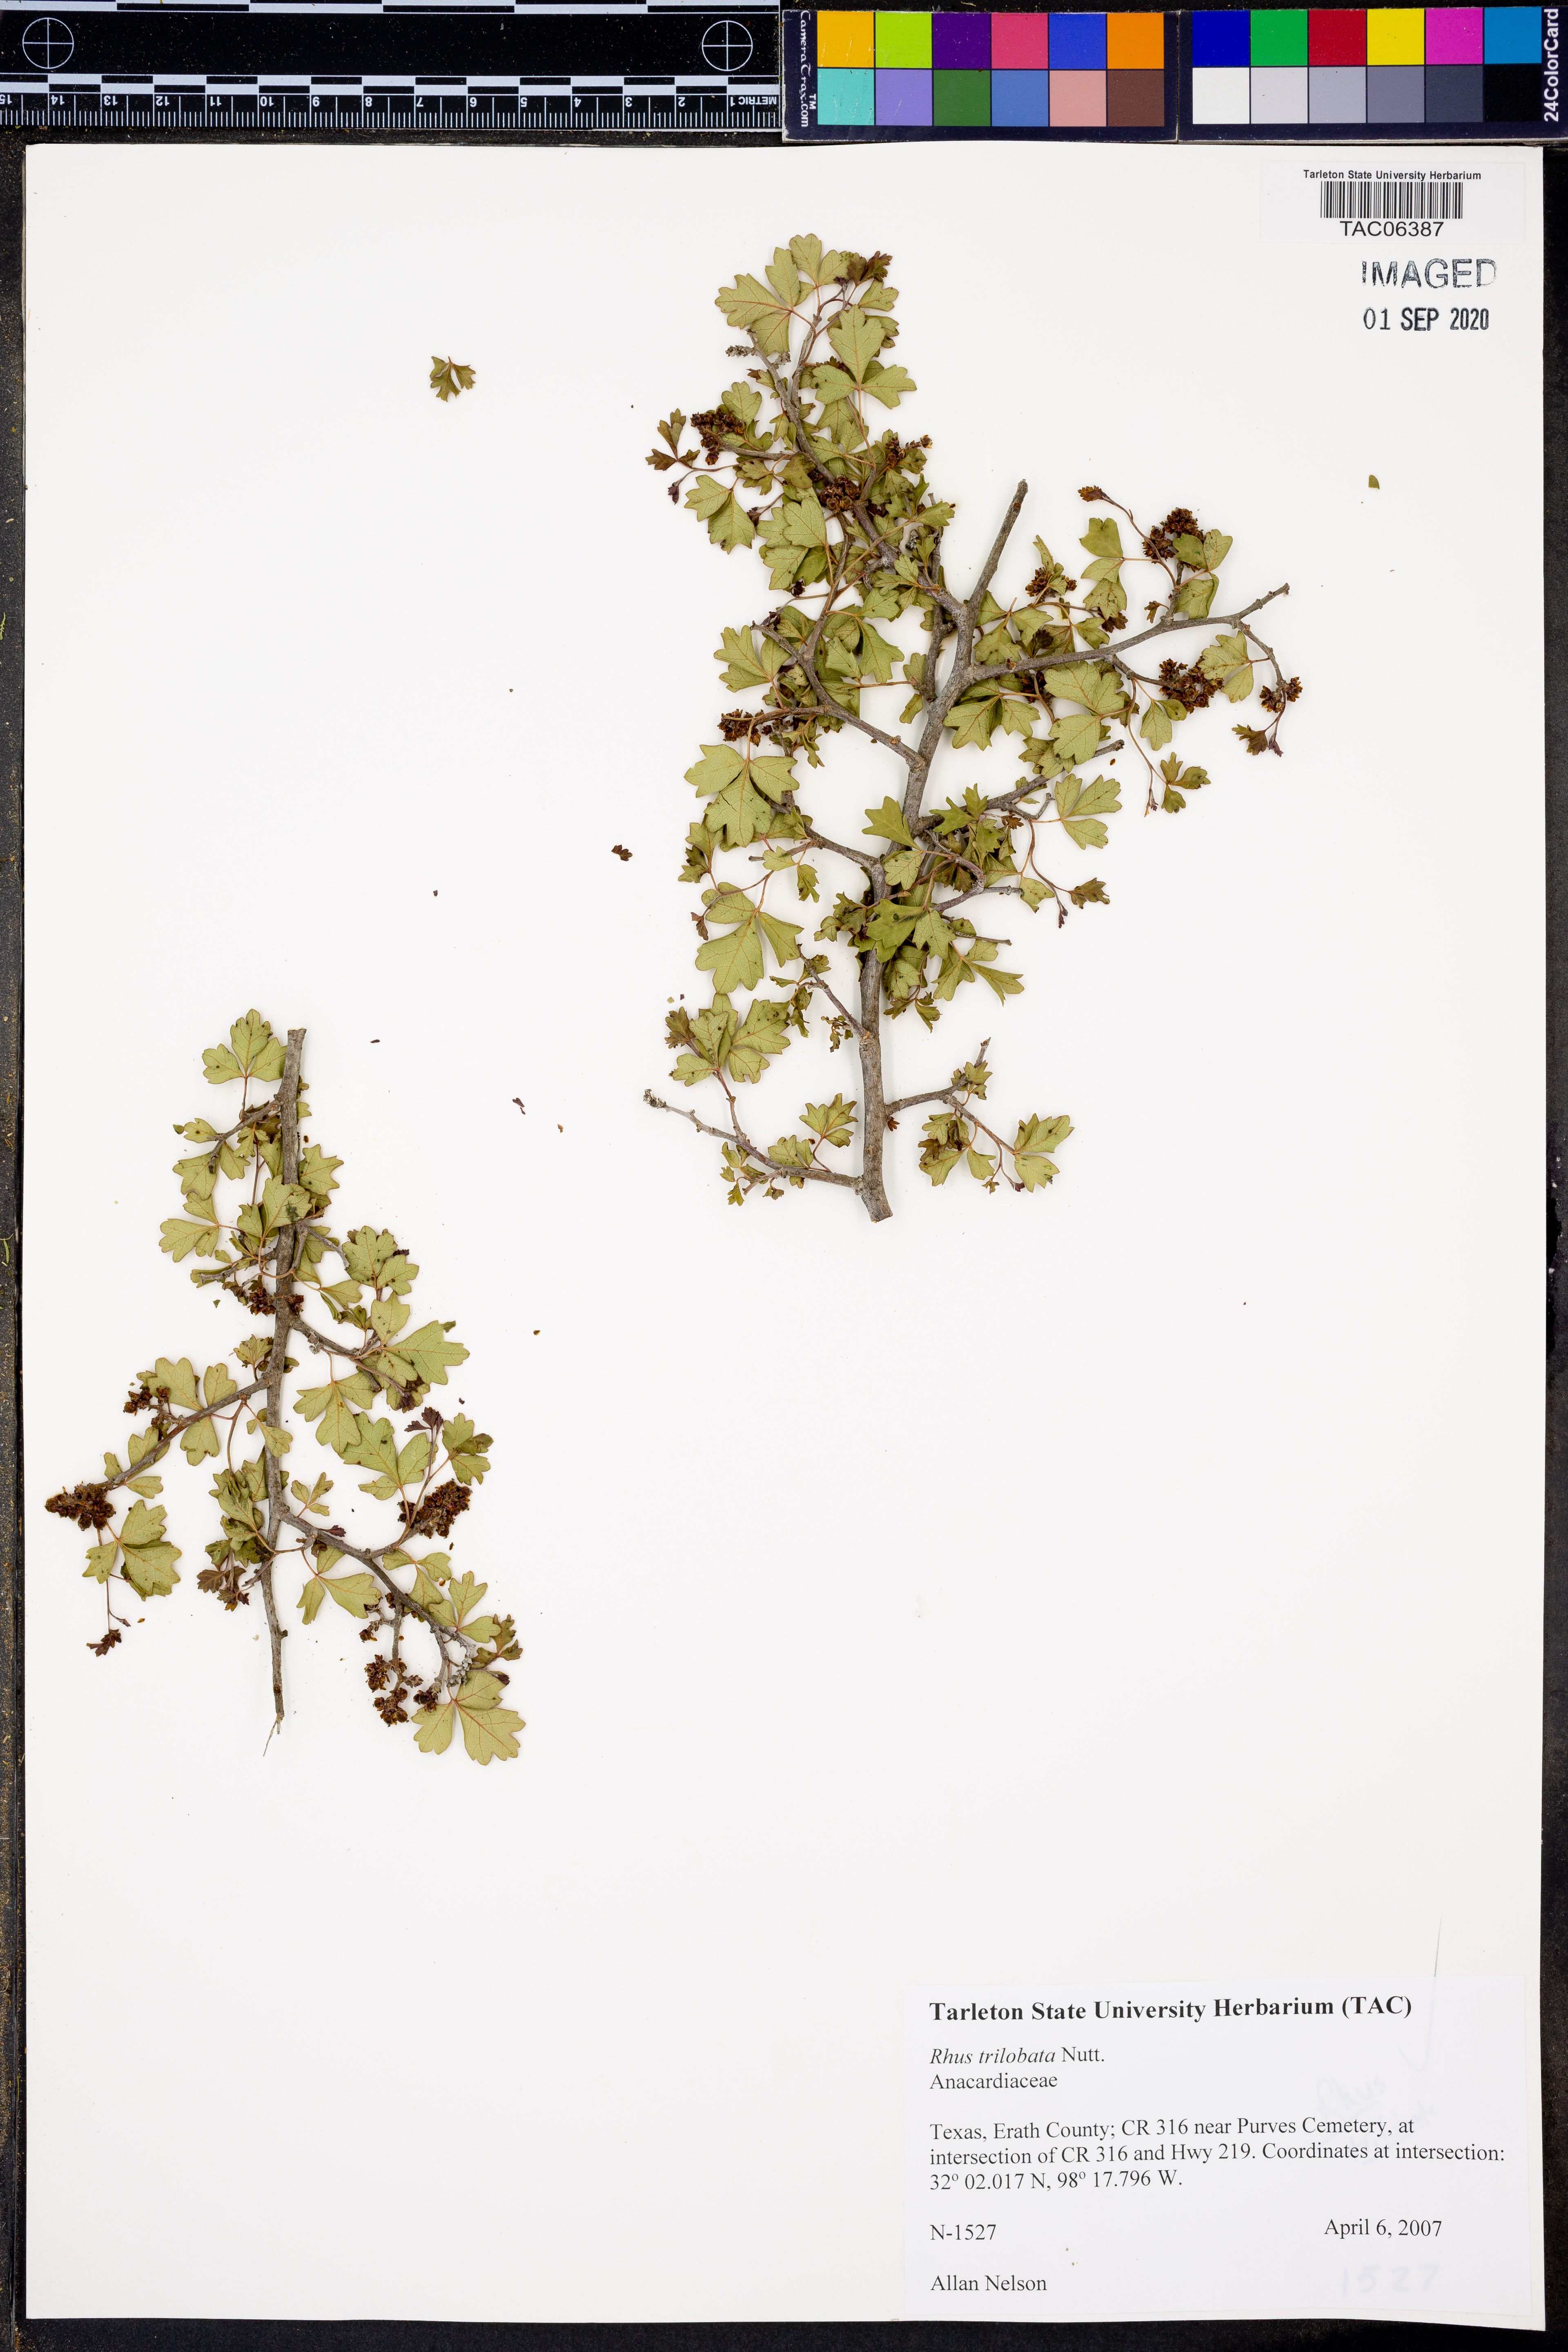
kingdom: Plantae
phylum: Tracheophyta
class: Magnoliopsida
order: Sapindales
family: Anacardiaceae
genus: Rhus
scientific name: Rhus trilobata
